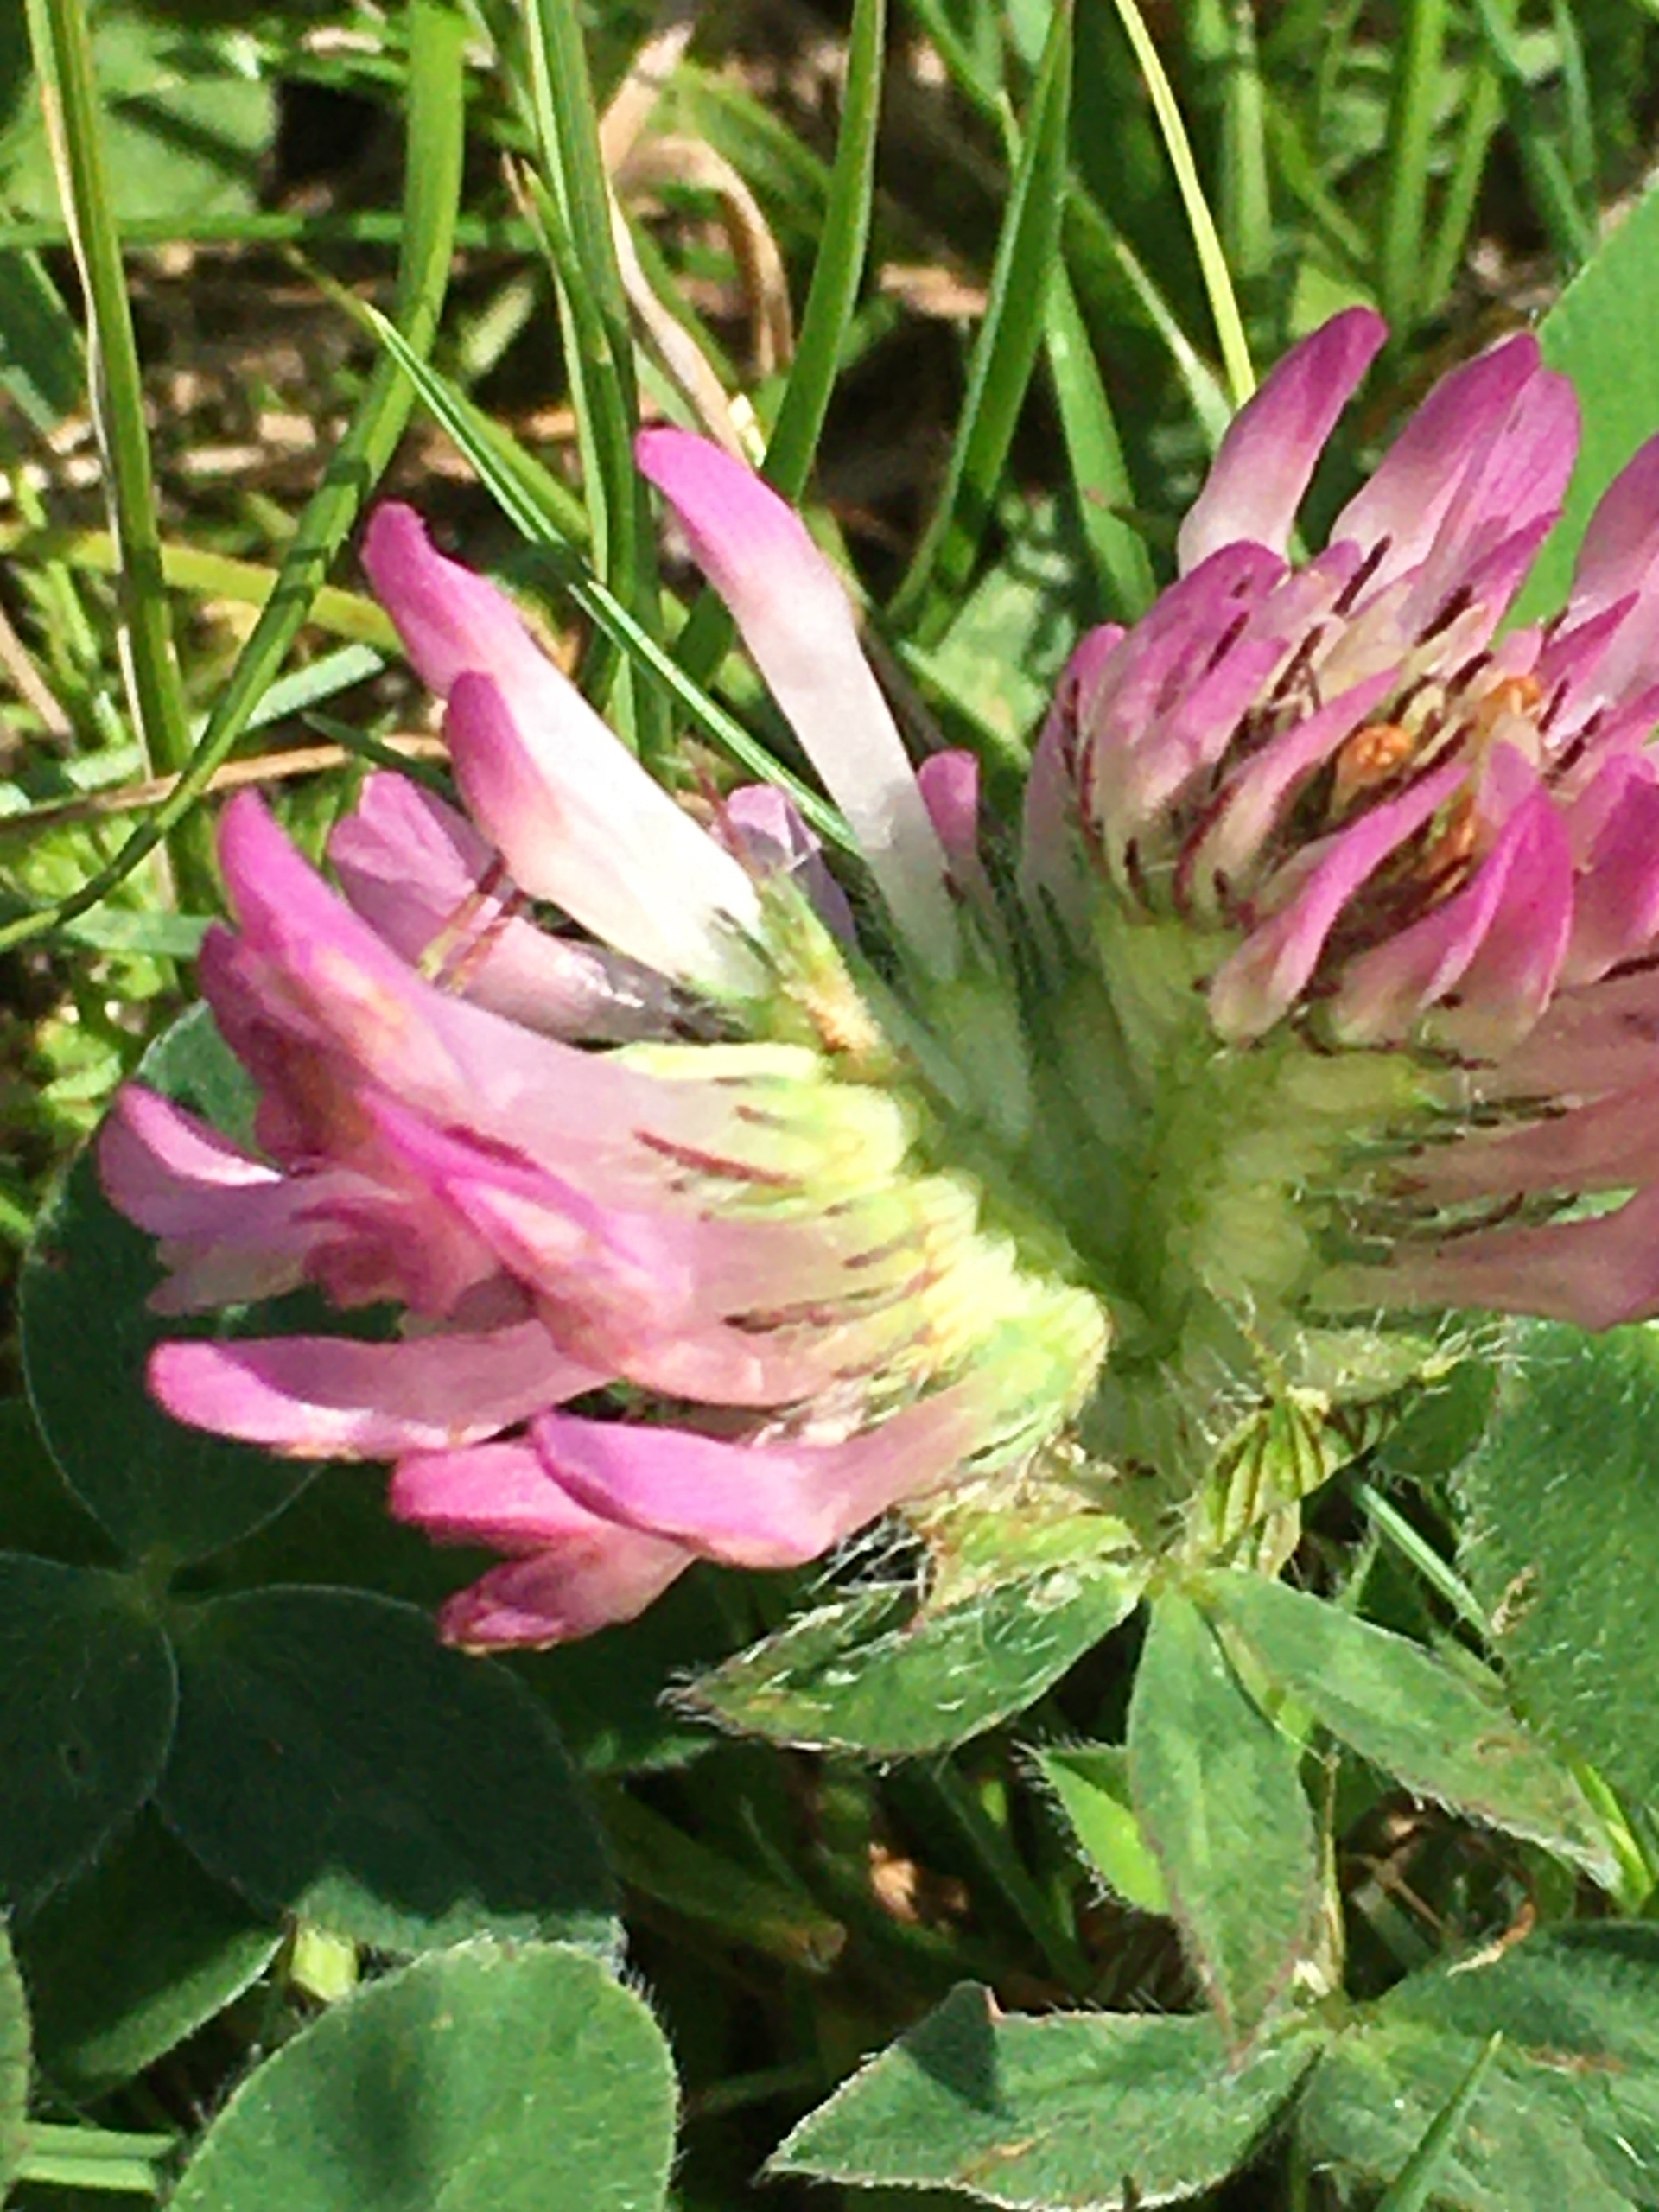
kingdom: Plantae
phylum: Tracheophyta
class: Magnoliopsida
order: Fabales
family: Fabaceae
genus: Trifolium
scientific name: Trifolium pratense
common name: Rød-kløver
